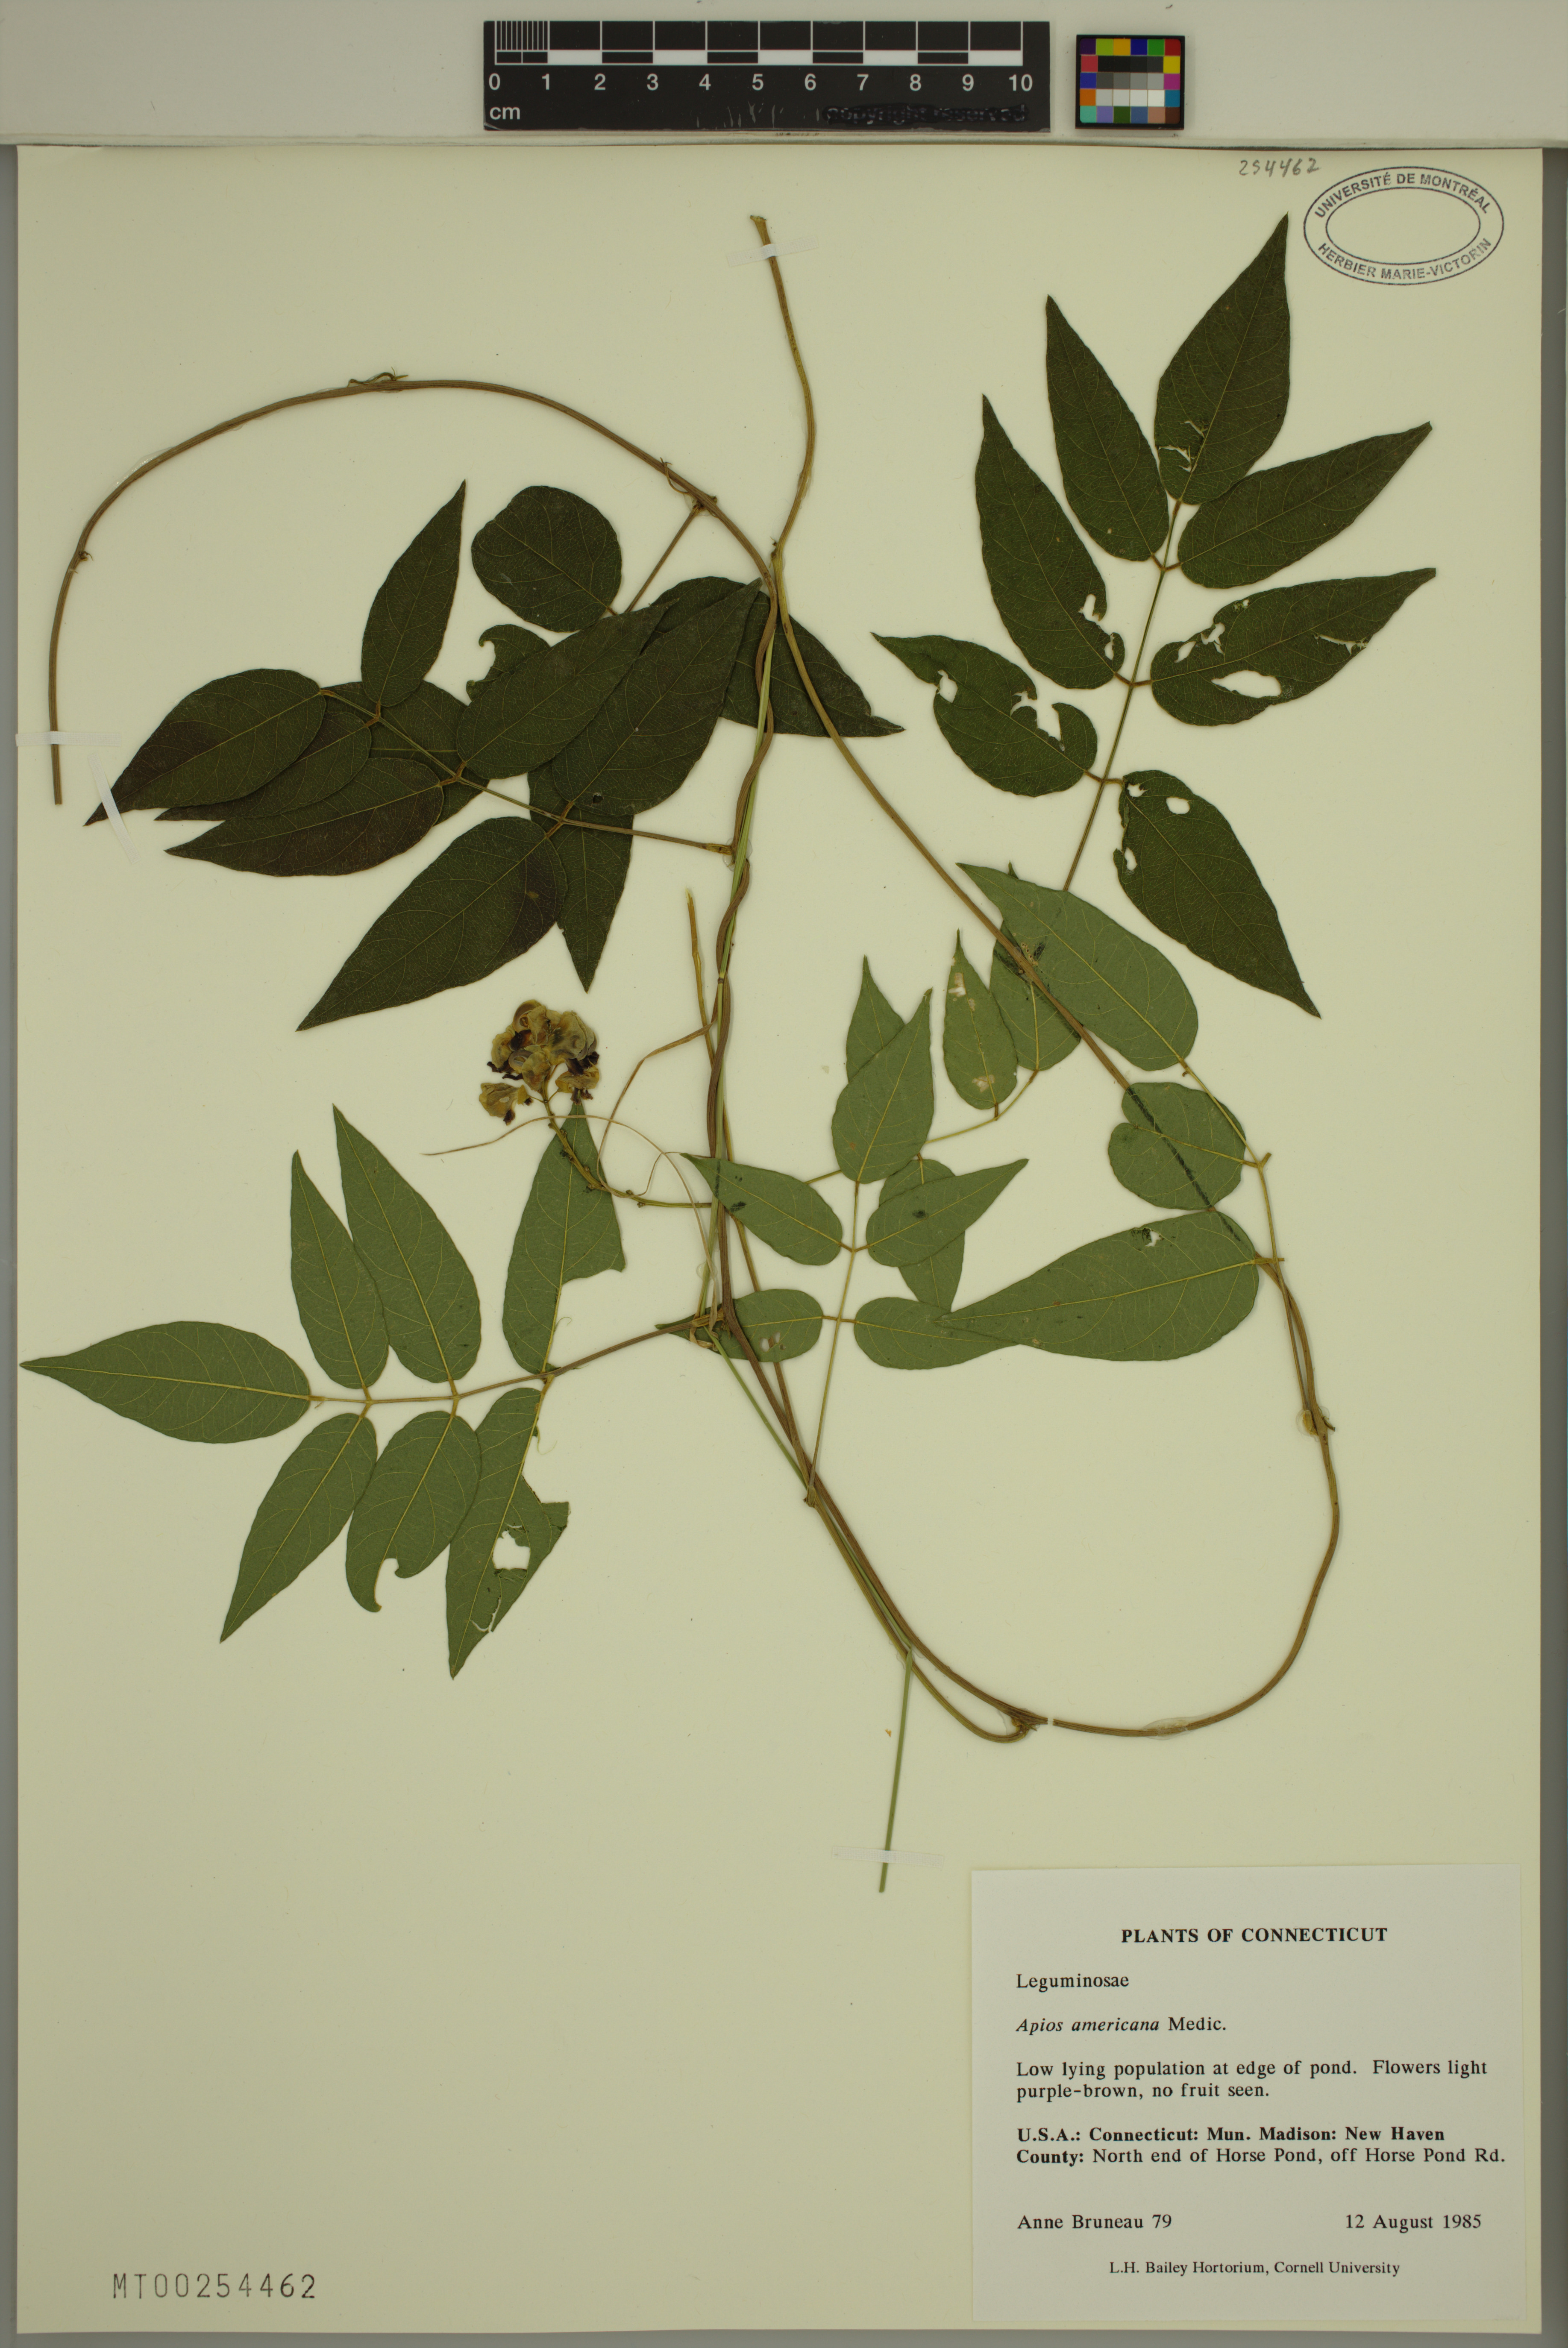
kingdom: Plantae
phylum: Tracheophyta
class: Magnoliopsida
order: Fabales
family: Fabaceae
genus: Apios
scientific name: Apios americana
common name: American potato-bean
